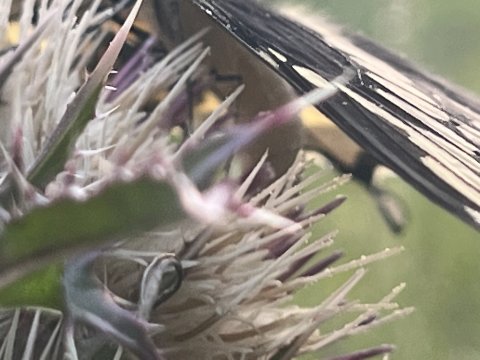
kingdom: Animalia
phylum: Arthropoda
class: Insecta
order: Lepidoptera
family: Papilionidae
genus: Papilio
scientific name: Papilio cresphontes
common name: Eastern Giant Swallowtail
